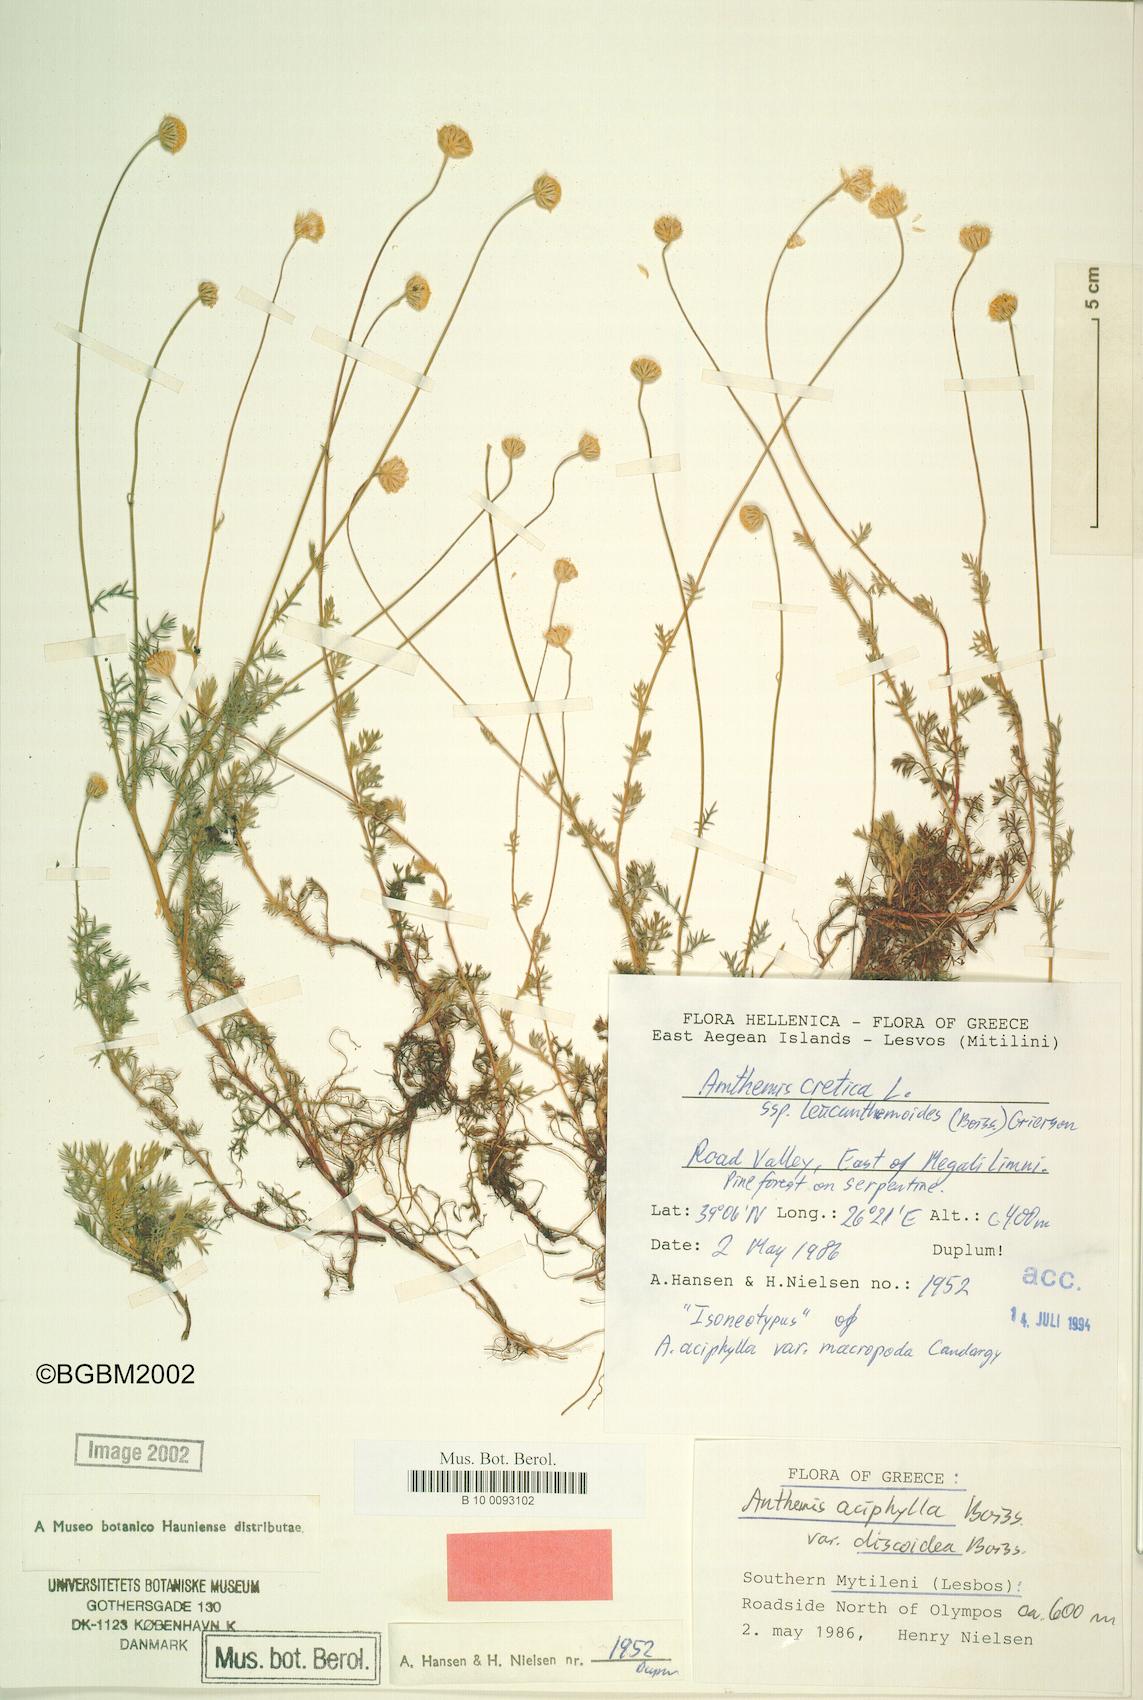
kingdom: Plantae
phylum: Tracheophyta
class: Magnoliopsida
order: Asterales
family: Asteraceae
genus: Anthemis
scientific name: Anthemis cretica
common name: Mountain dog-daisy
